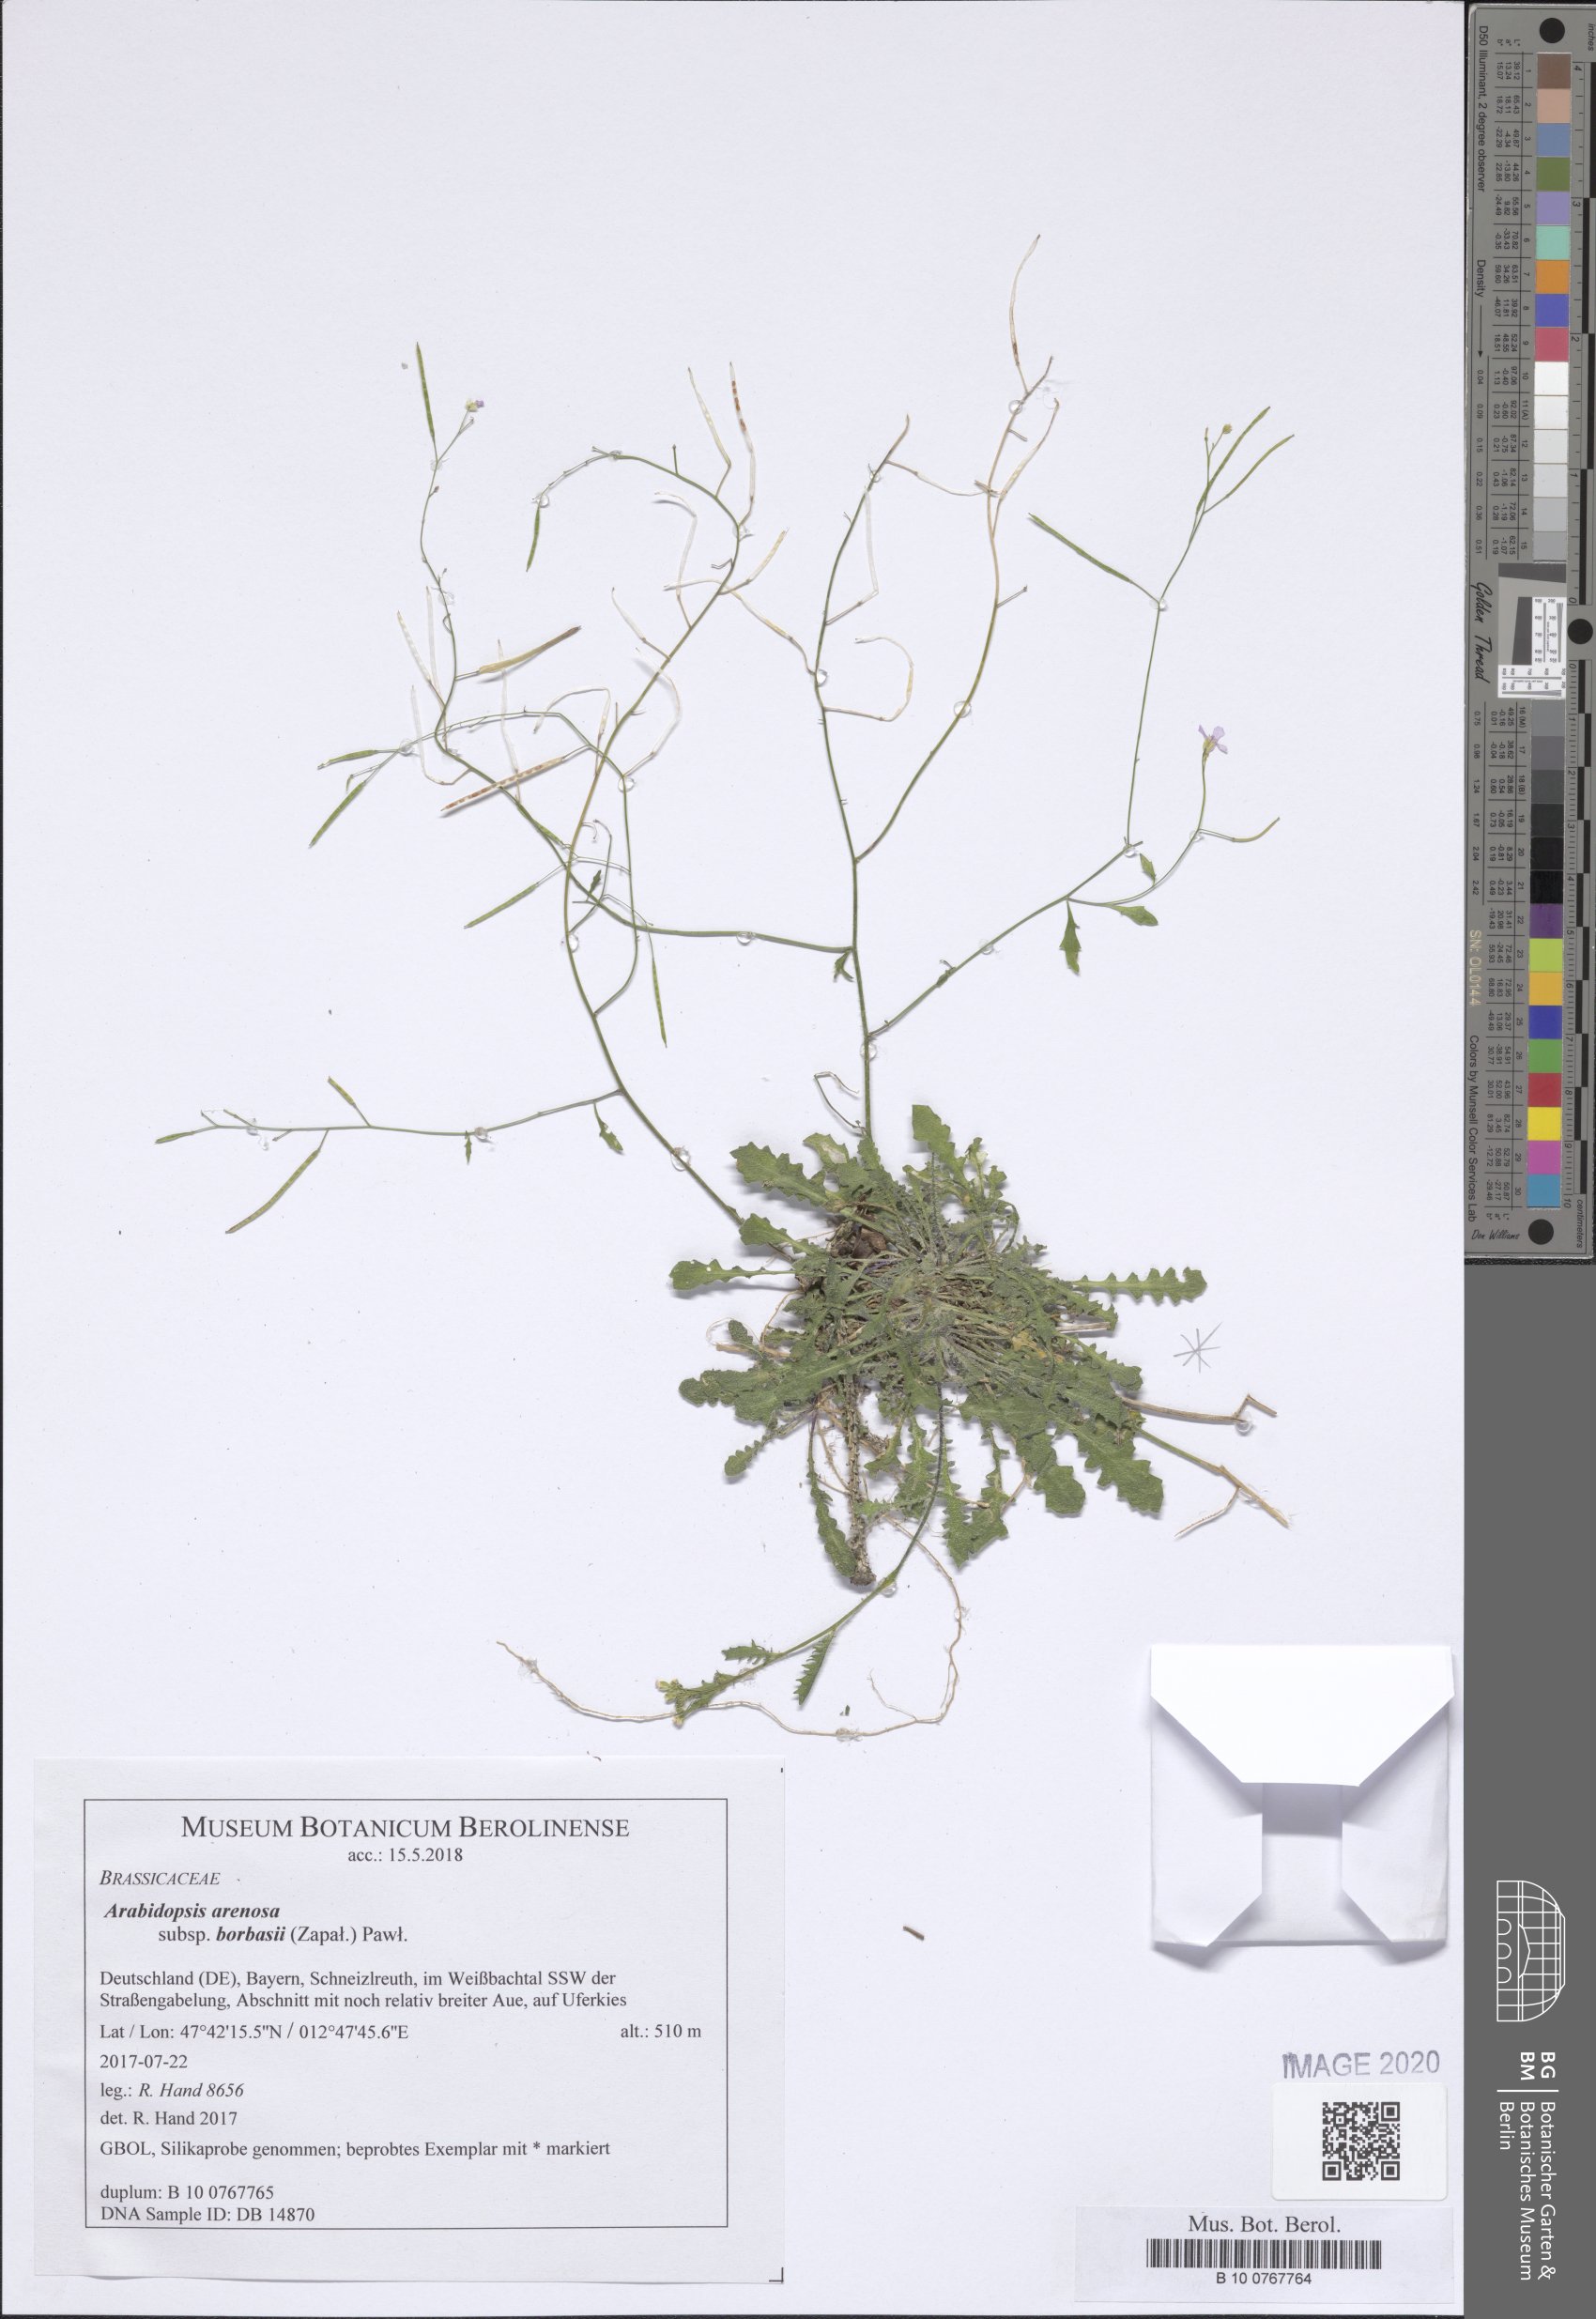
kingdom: Plantae
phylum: Tracheophyta
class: Magnoliopsida
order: Brassicales
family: Brassicaceae
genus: Arabidopsis
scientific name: Arabidopsis arenosa
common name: Sand rock-cress
